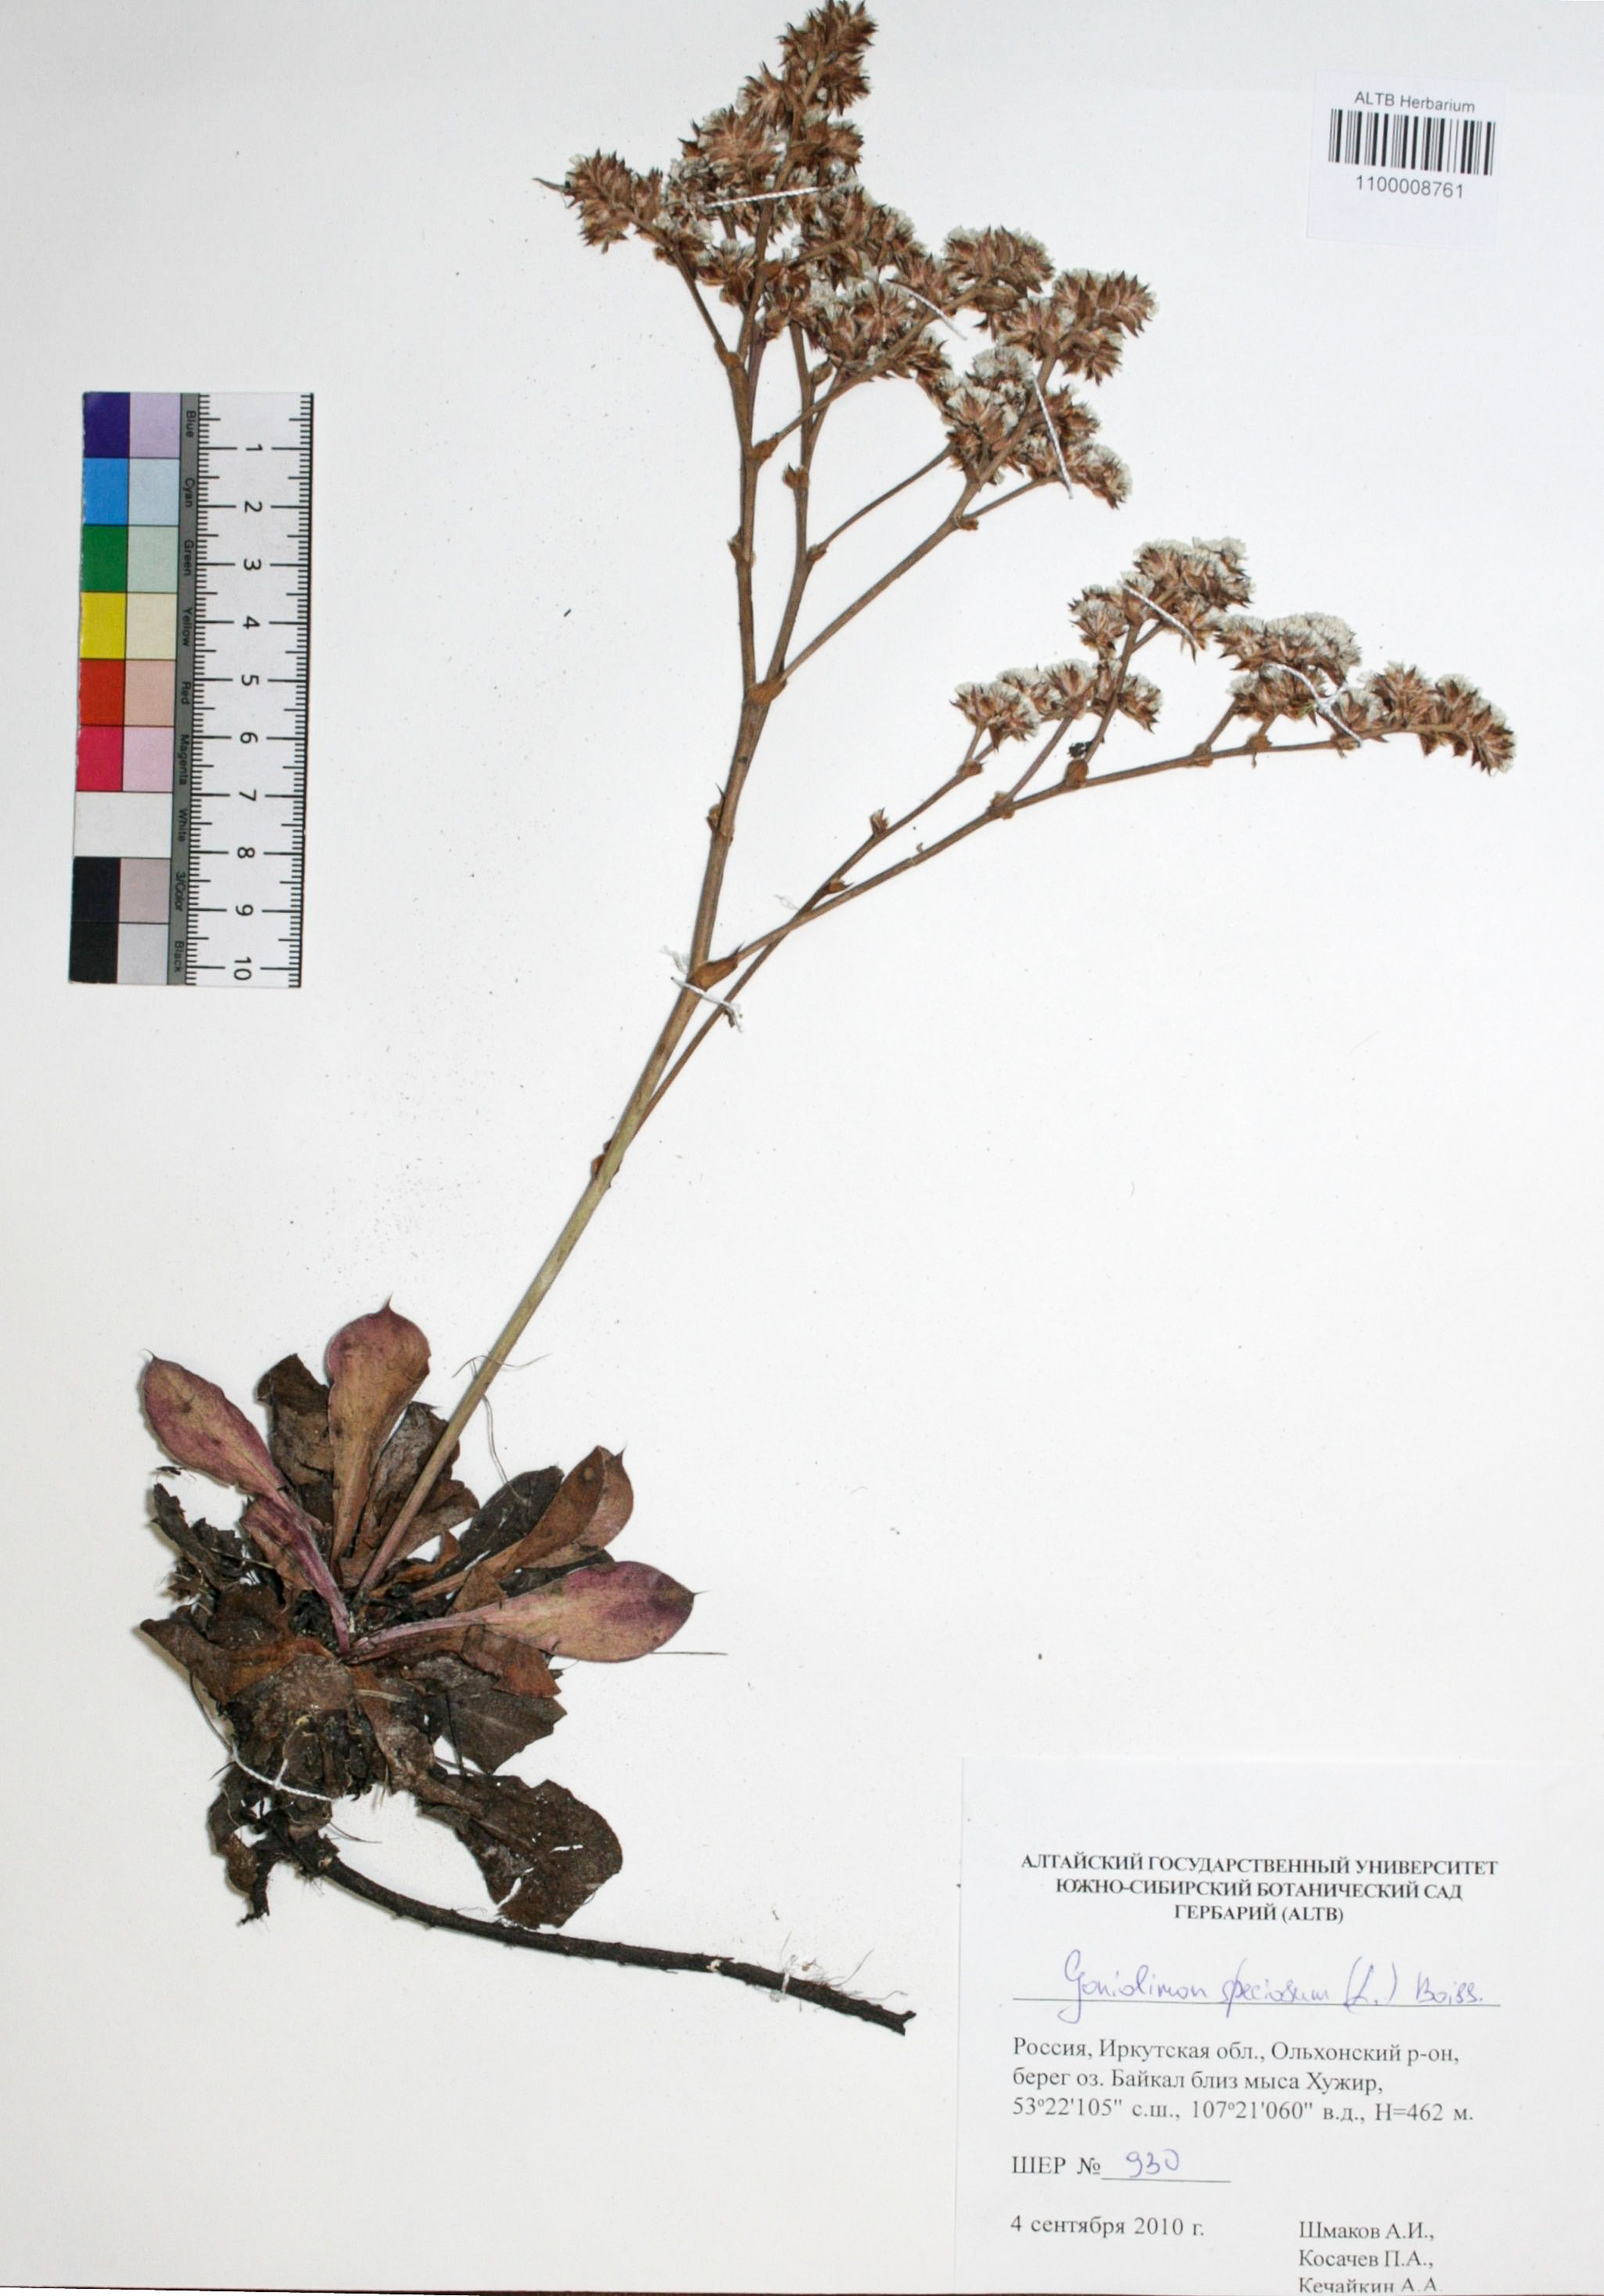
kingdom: Plantae
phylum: Tracheophyta
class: Magnoliopsida
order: Caryophyllales
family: Plumbaginaceae
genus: Goniolimon
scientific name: Goniolimon speciosum
